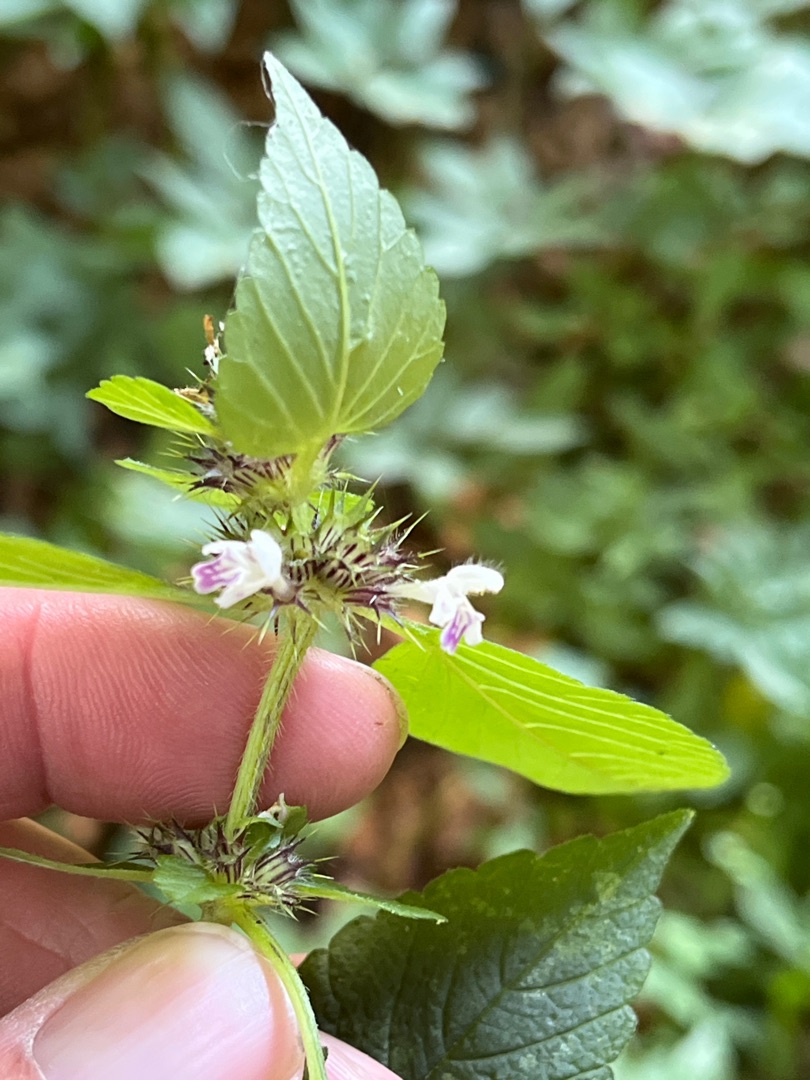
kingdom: Plantae
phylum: Tracheophyta
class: Magnoliopsida
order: Lamiales
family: Lamiaceae
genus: Galeopsis
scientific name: Galeopsis bifida
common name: Skov-hanekro
